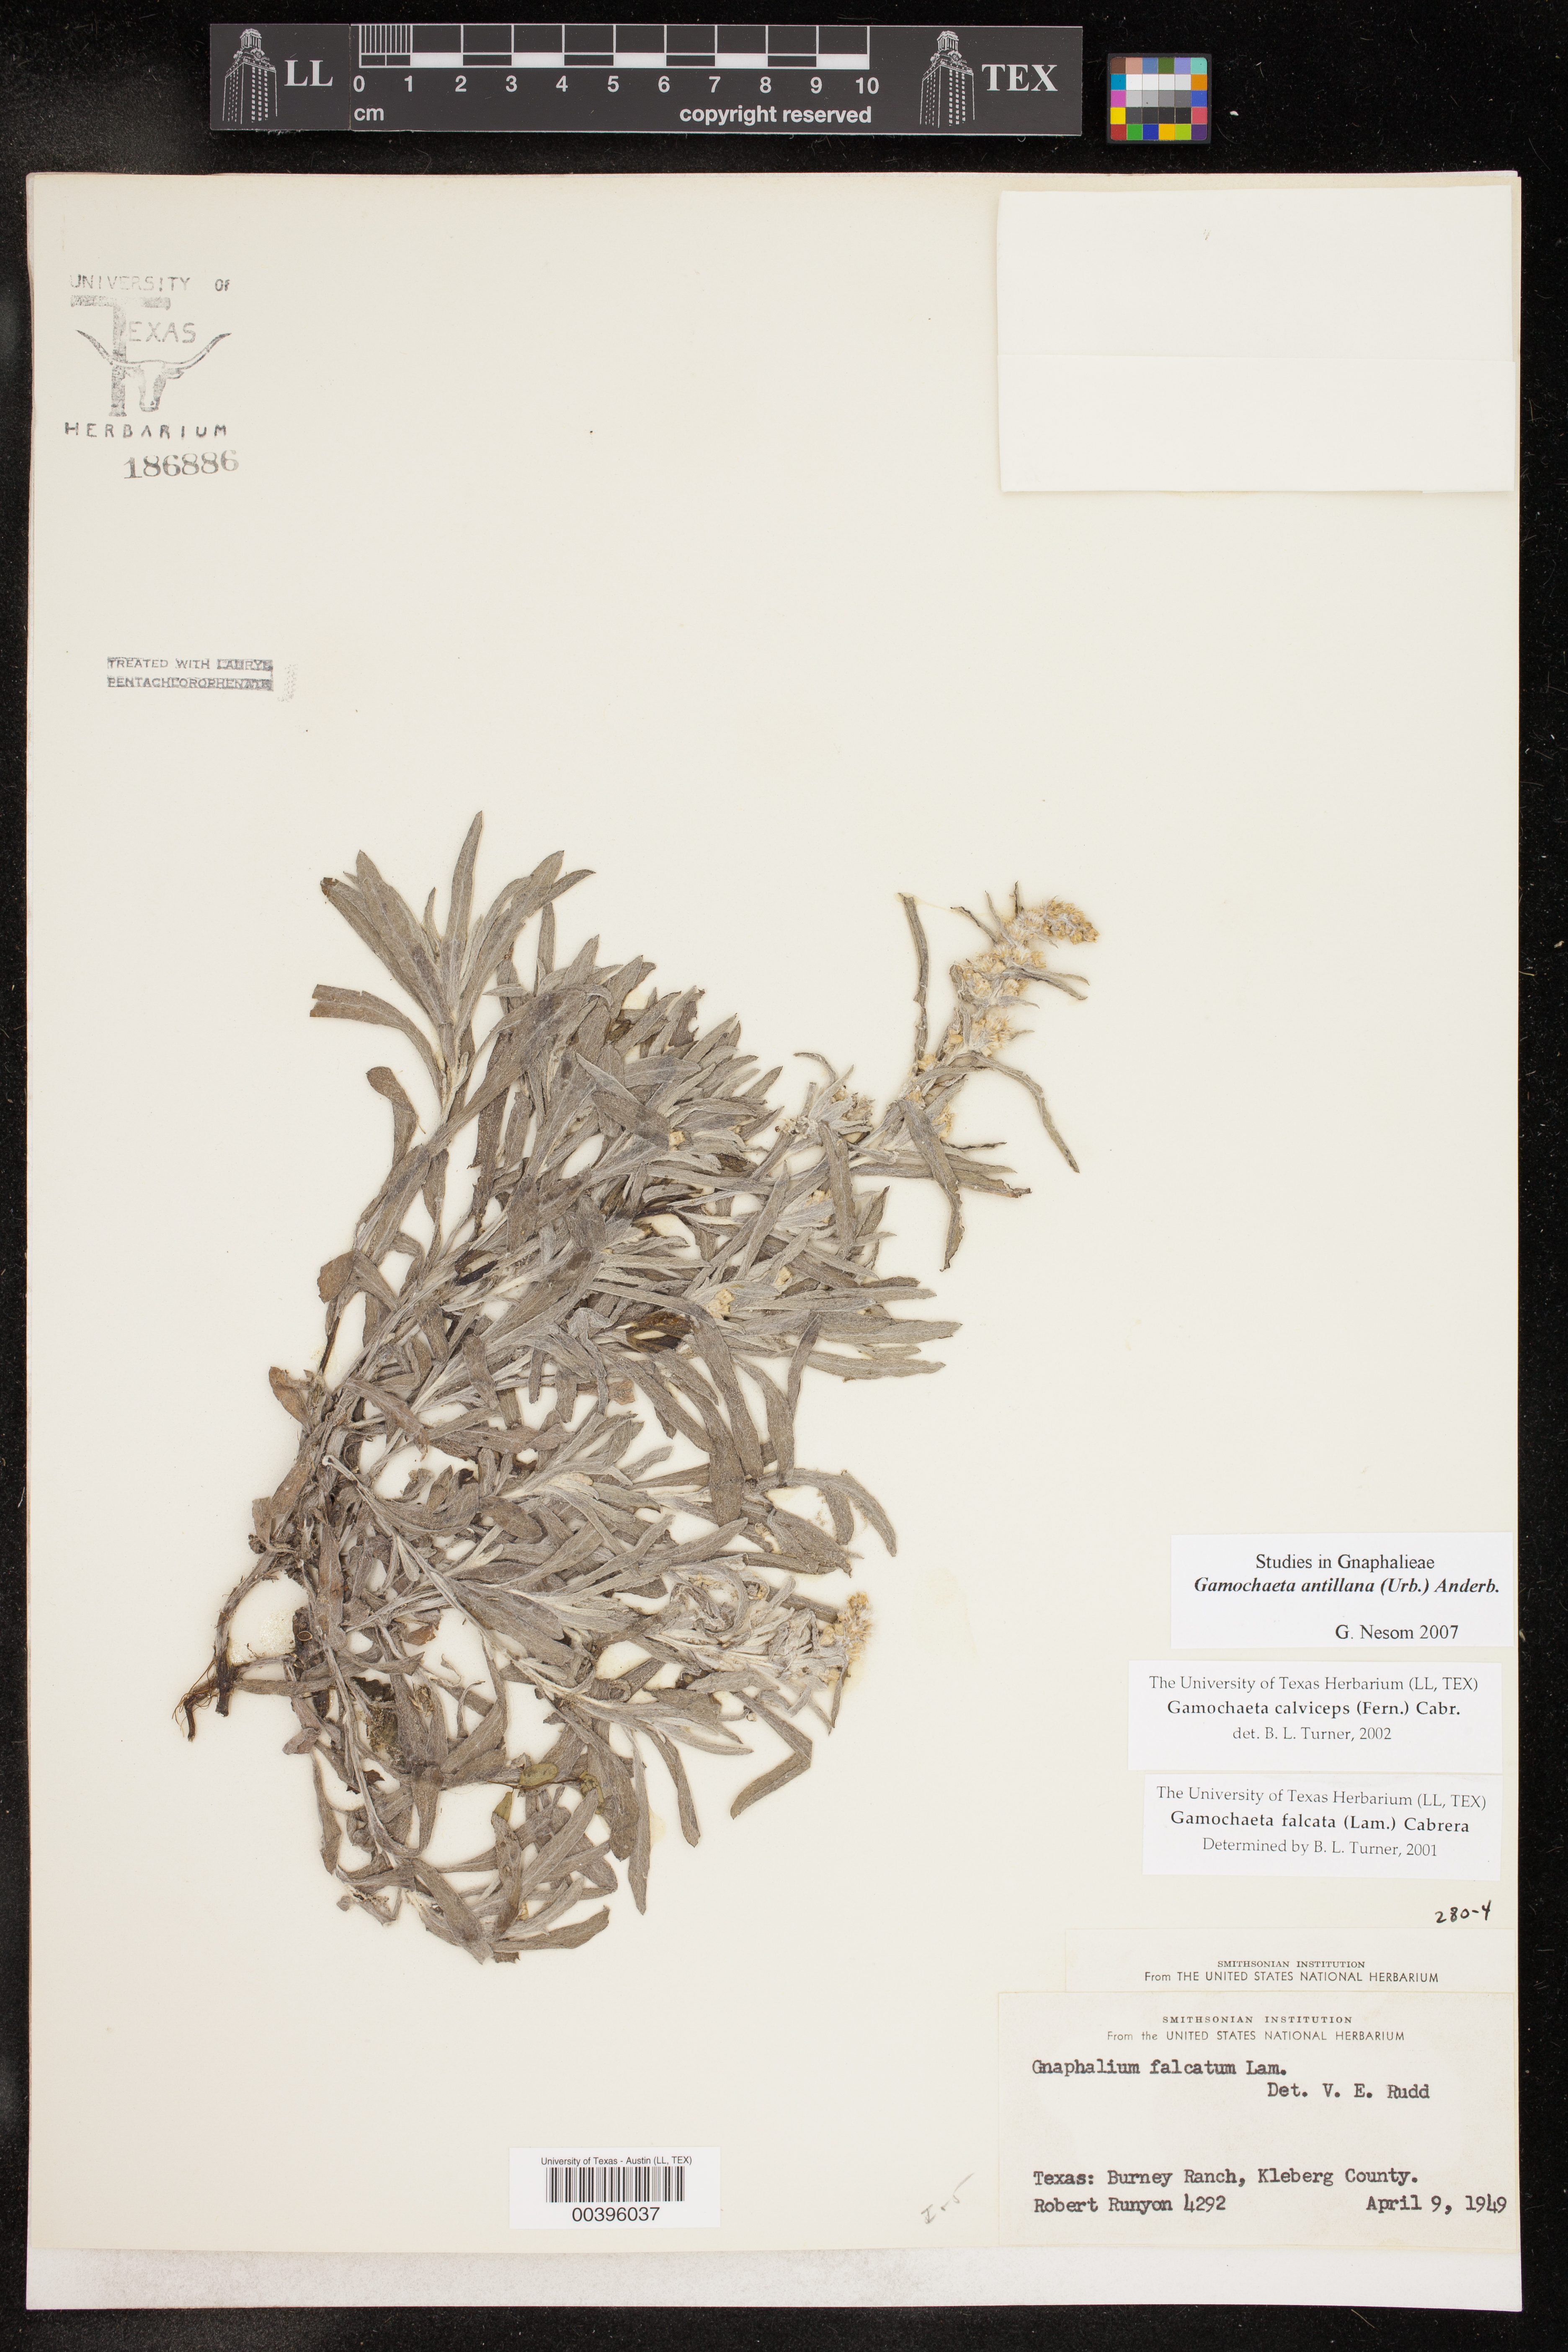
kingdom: Plantae
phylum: Tracheophyta
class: Magnoliopsida
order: Asterales
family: Asteraceae
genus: Gamochaeta
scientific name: Gamochaeta antillana
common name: Delicate everlasting
